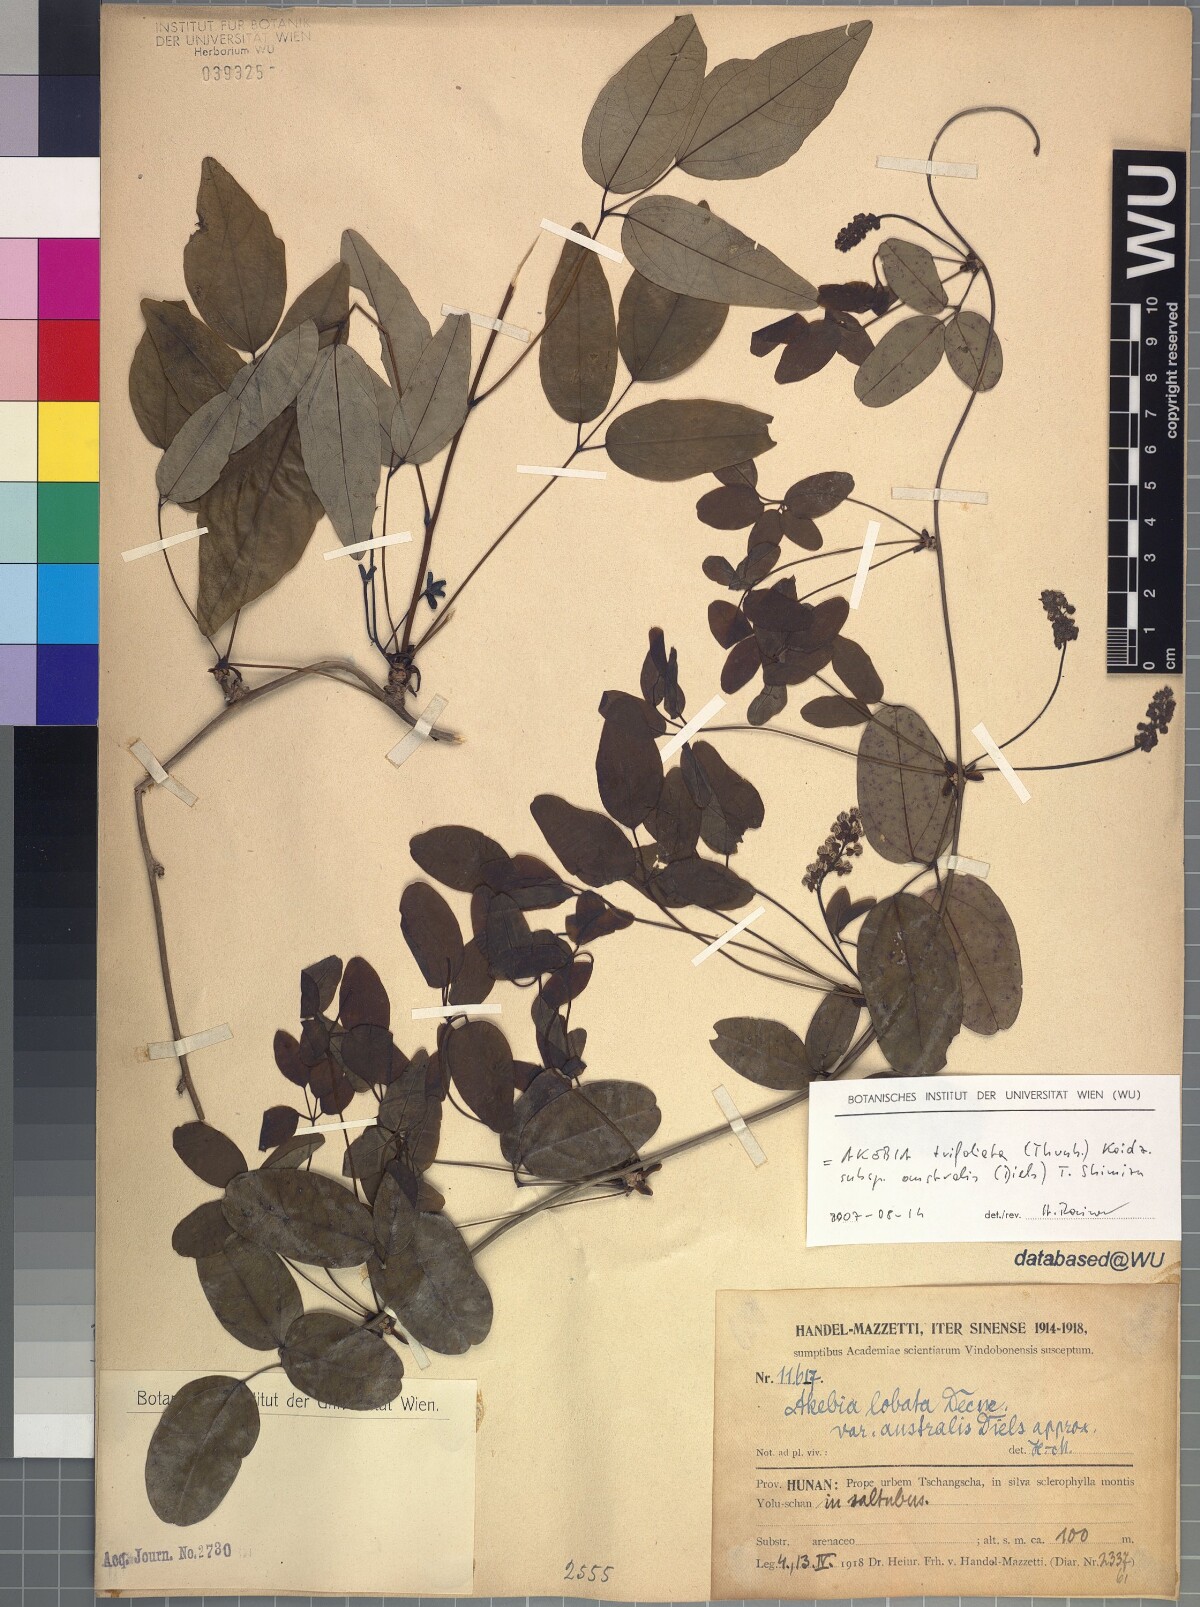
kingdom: Plantae
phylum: Tracheophyta
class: Magnoliopsida
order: Ranunculales
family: Lardizabalaceae
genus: Akebia
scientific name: Akebia trifoliata
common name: Chocolate-vine
